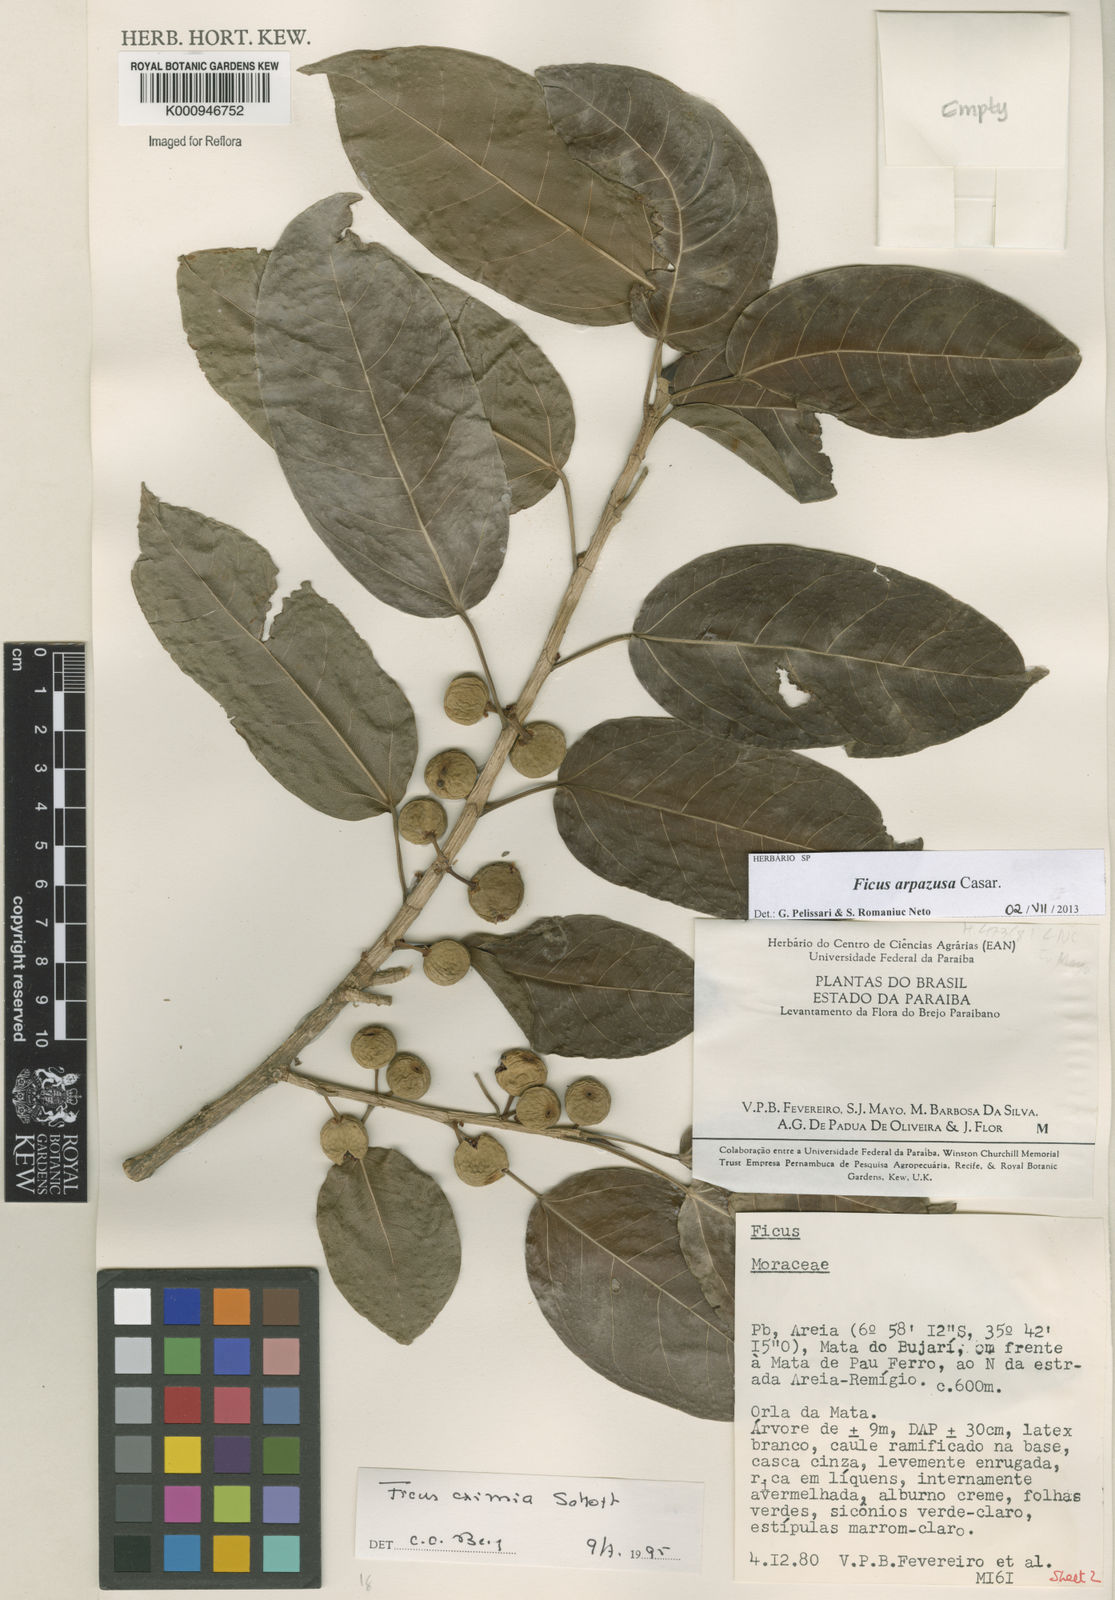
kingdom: Plantae
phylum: Tracheophyta
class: Magnoliopsida
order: Rosales
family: Moraceae
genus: Ficus
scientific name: Ficus arpazusa
